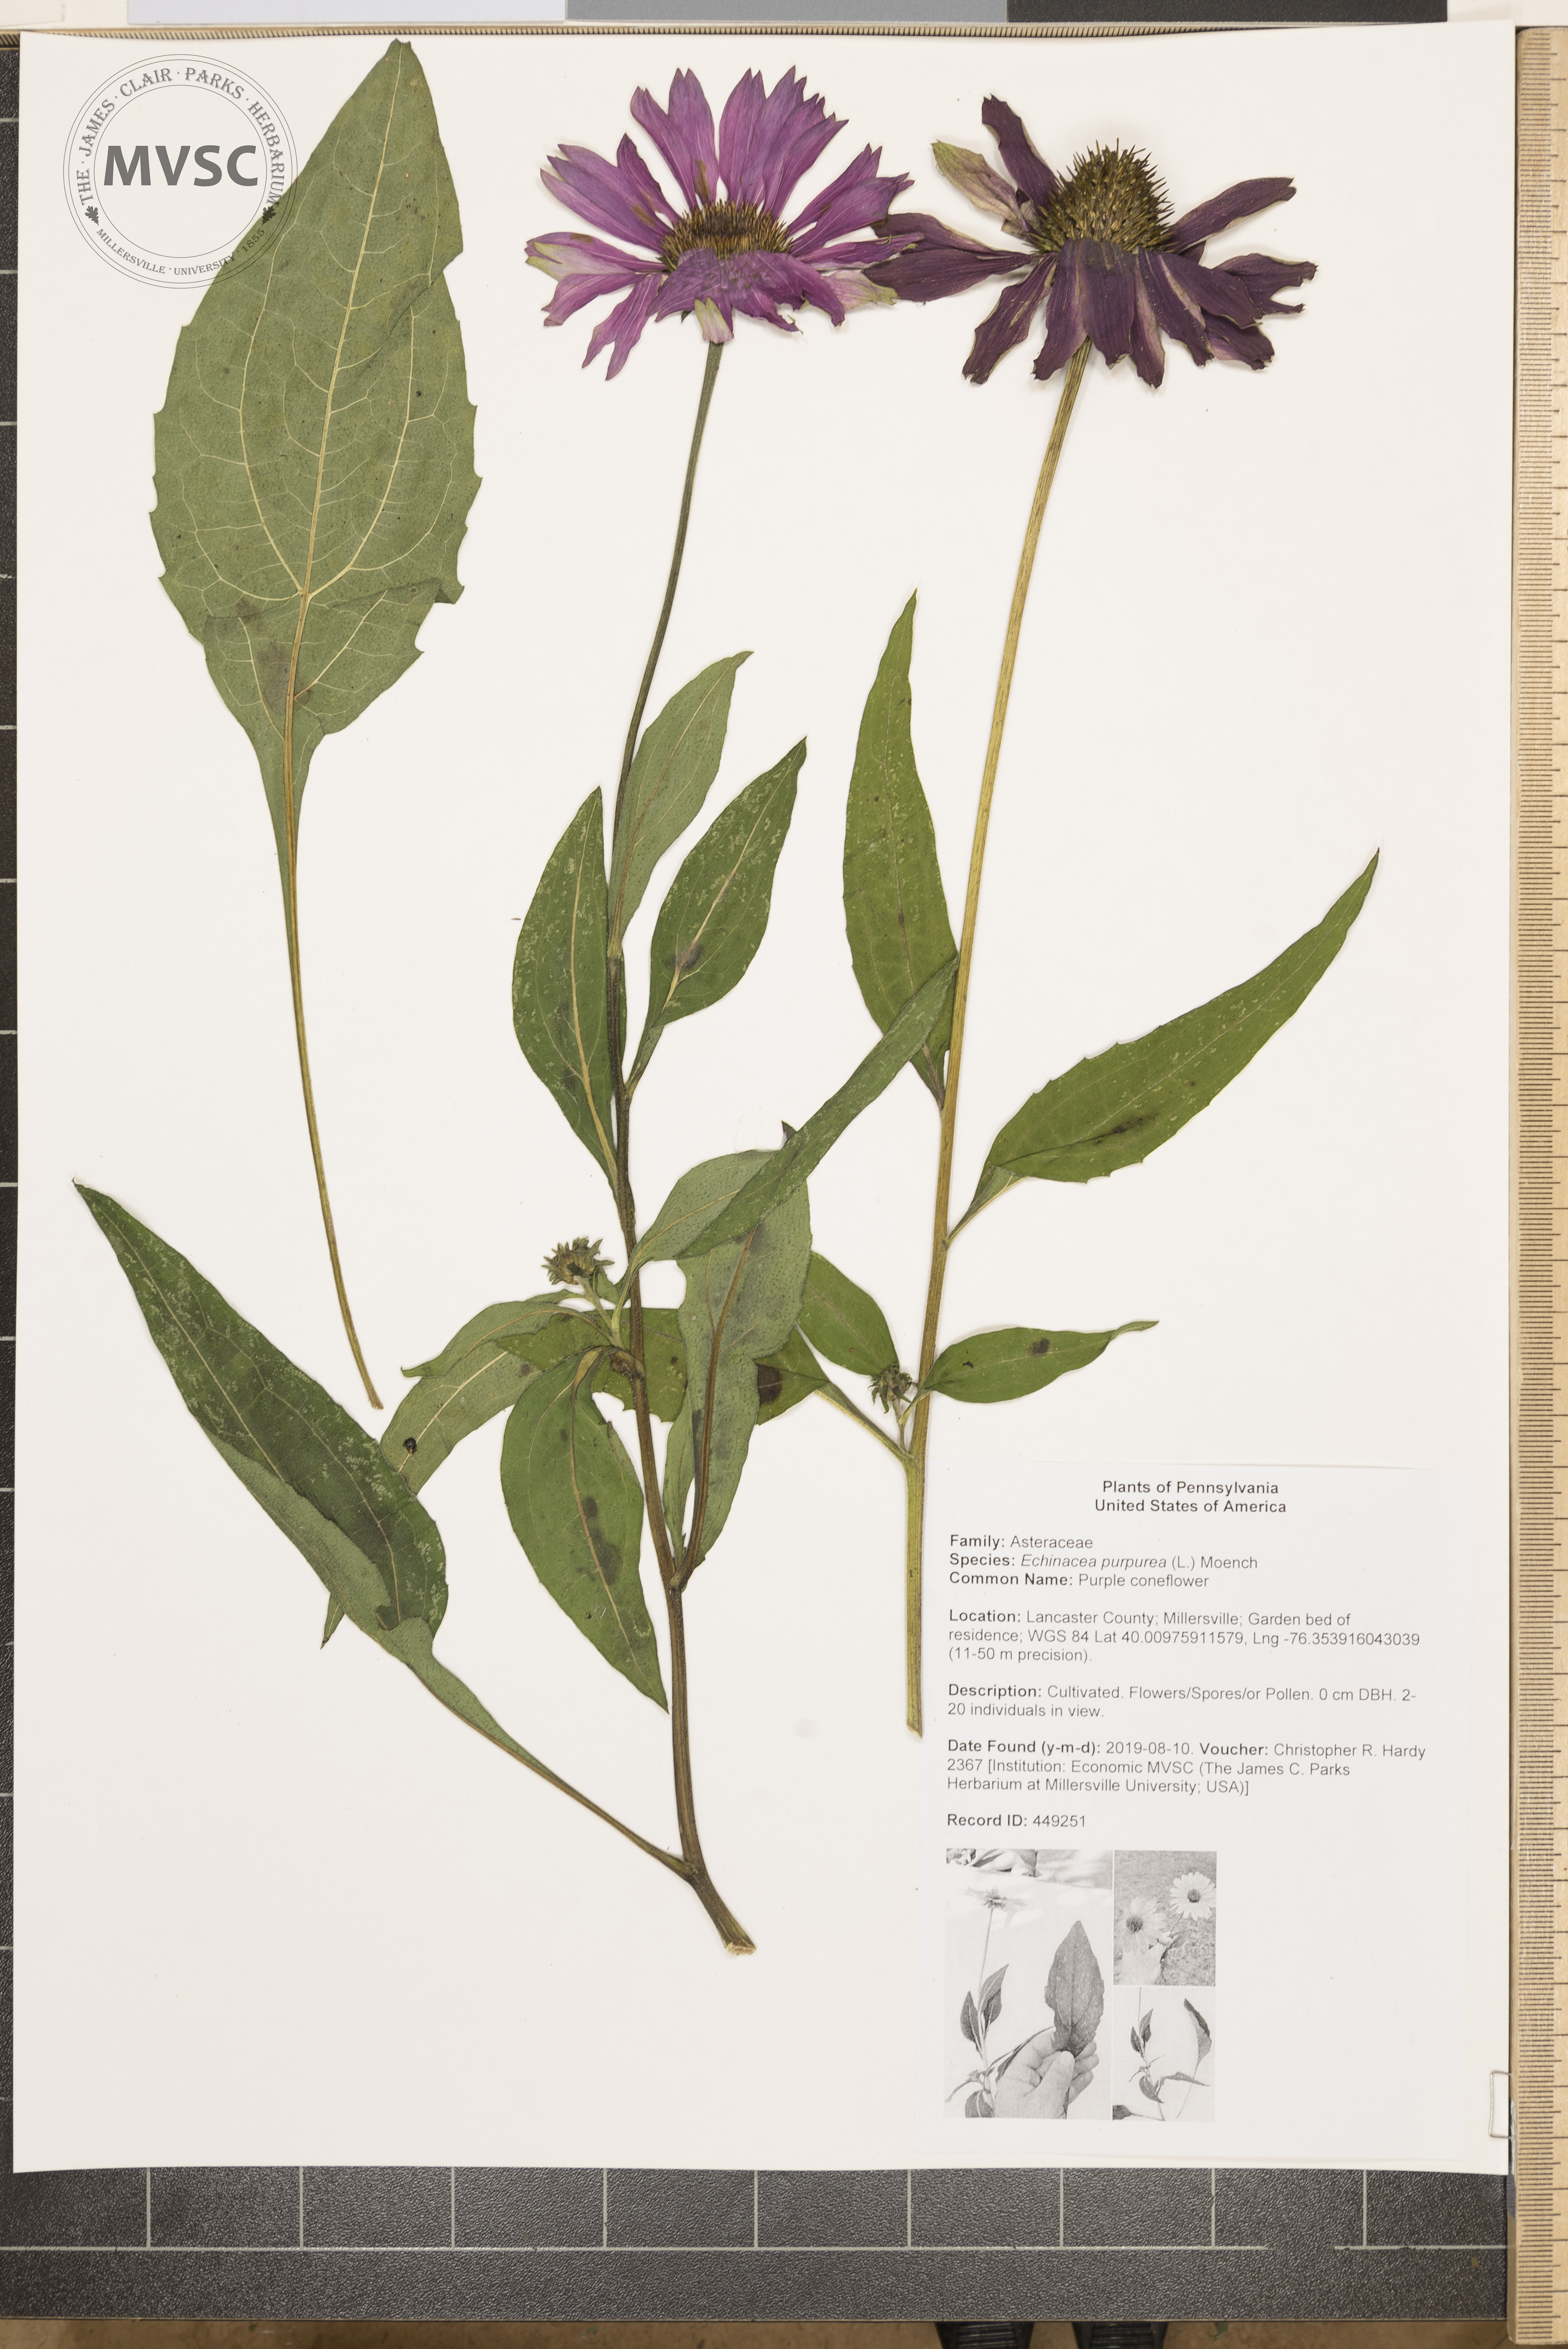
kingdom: Plantae
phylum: Tracheophyta
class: Magnoliopsida
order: Asterales
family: Asteraceae
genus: Echinacea
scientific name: Echinacea purpurea
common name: Purple coneflower
